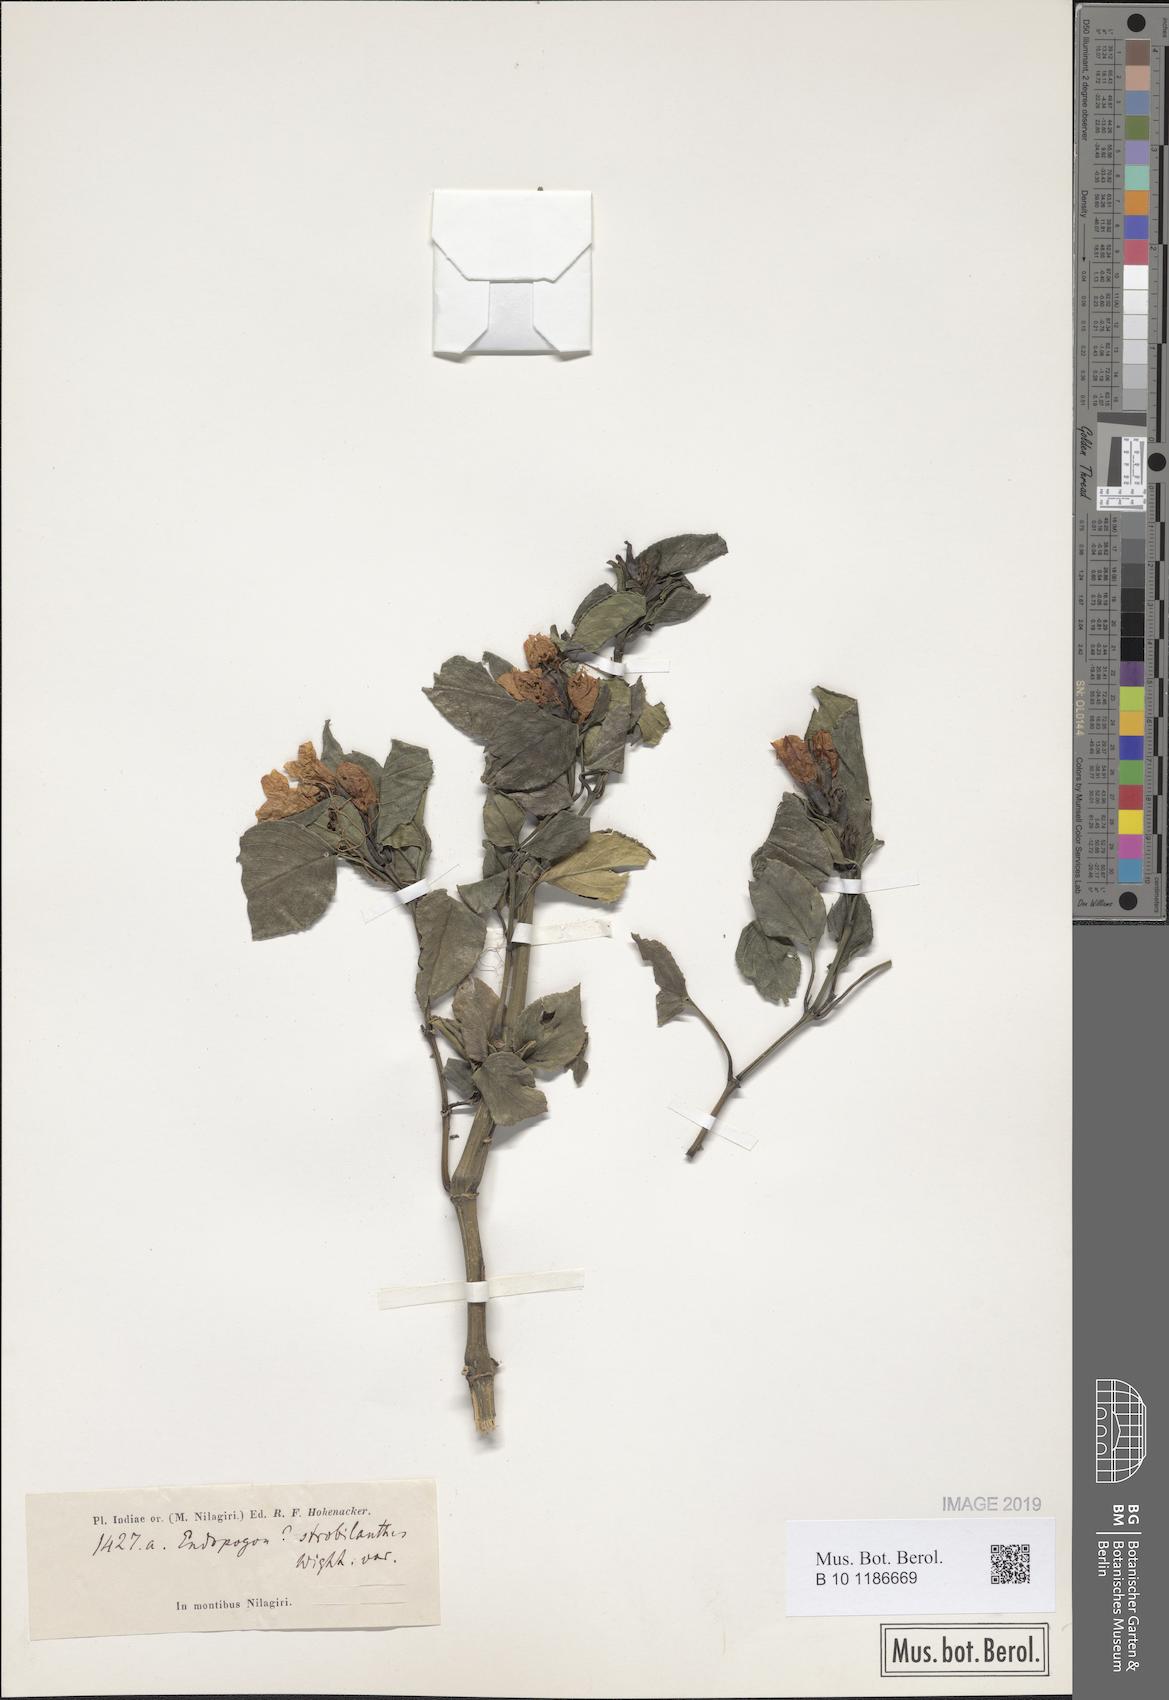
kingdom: Plantae
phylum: Tracheophyta
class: Magnoliopsida
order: Lamiales
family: Acanthaceae
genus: Strobilanthes
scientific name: Strobilanthes zenkeriana
